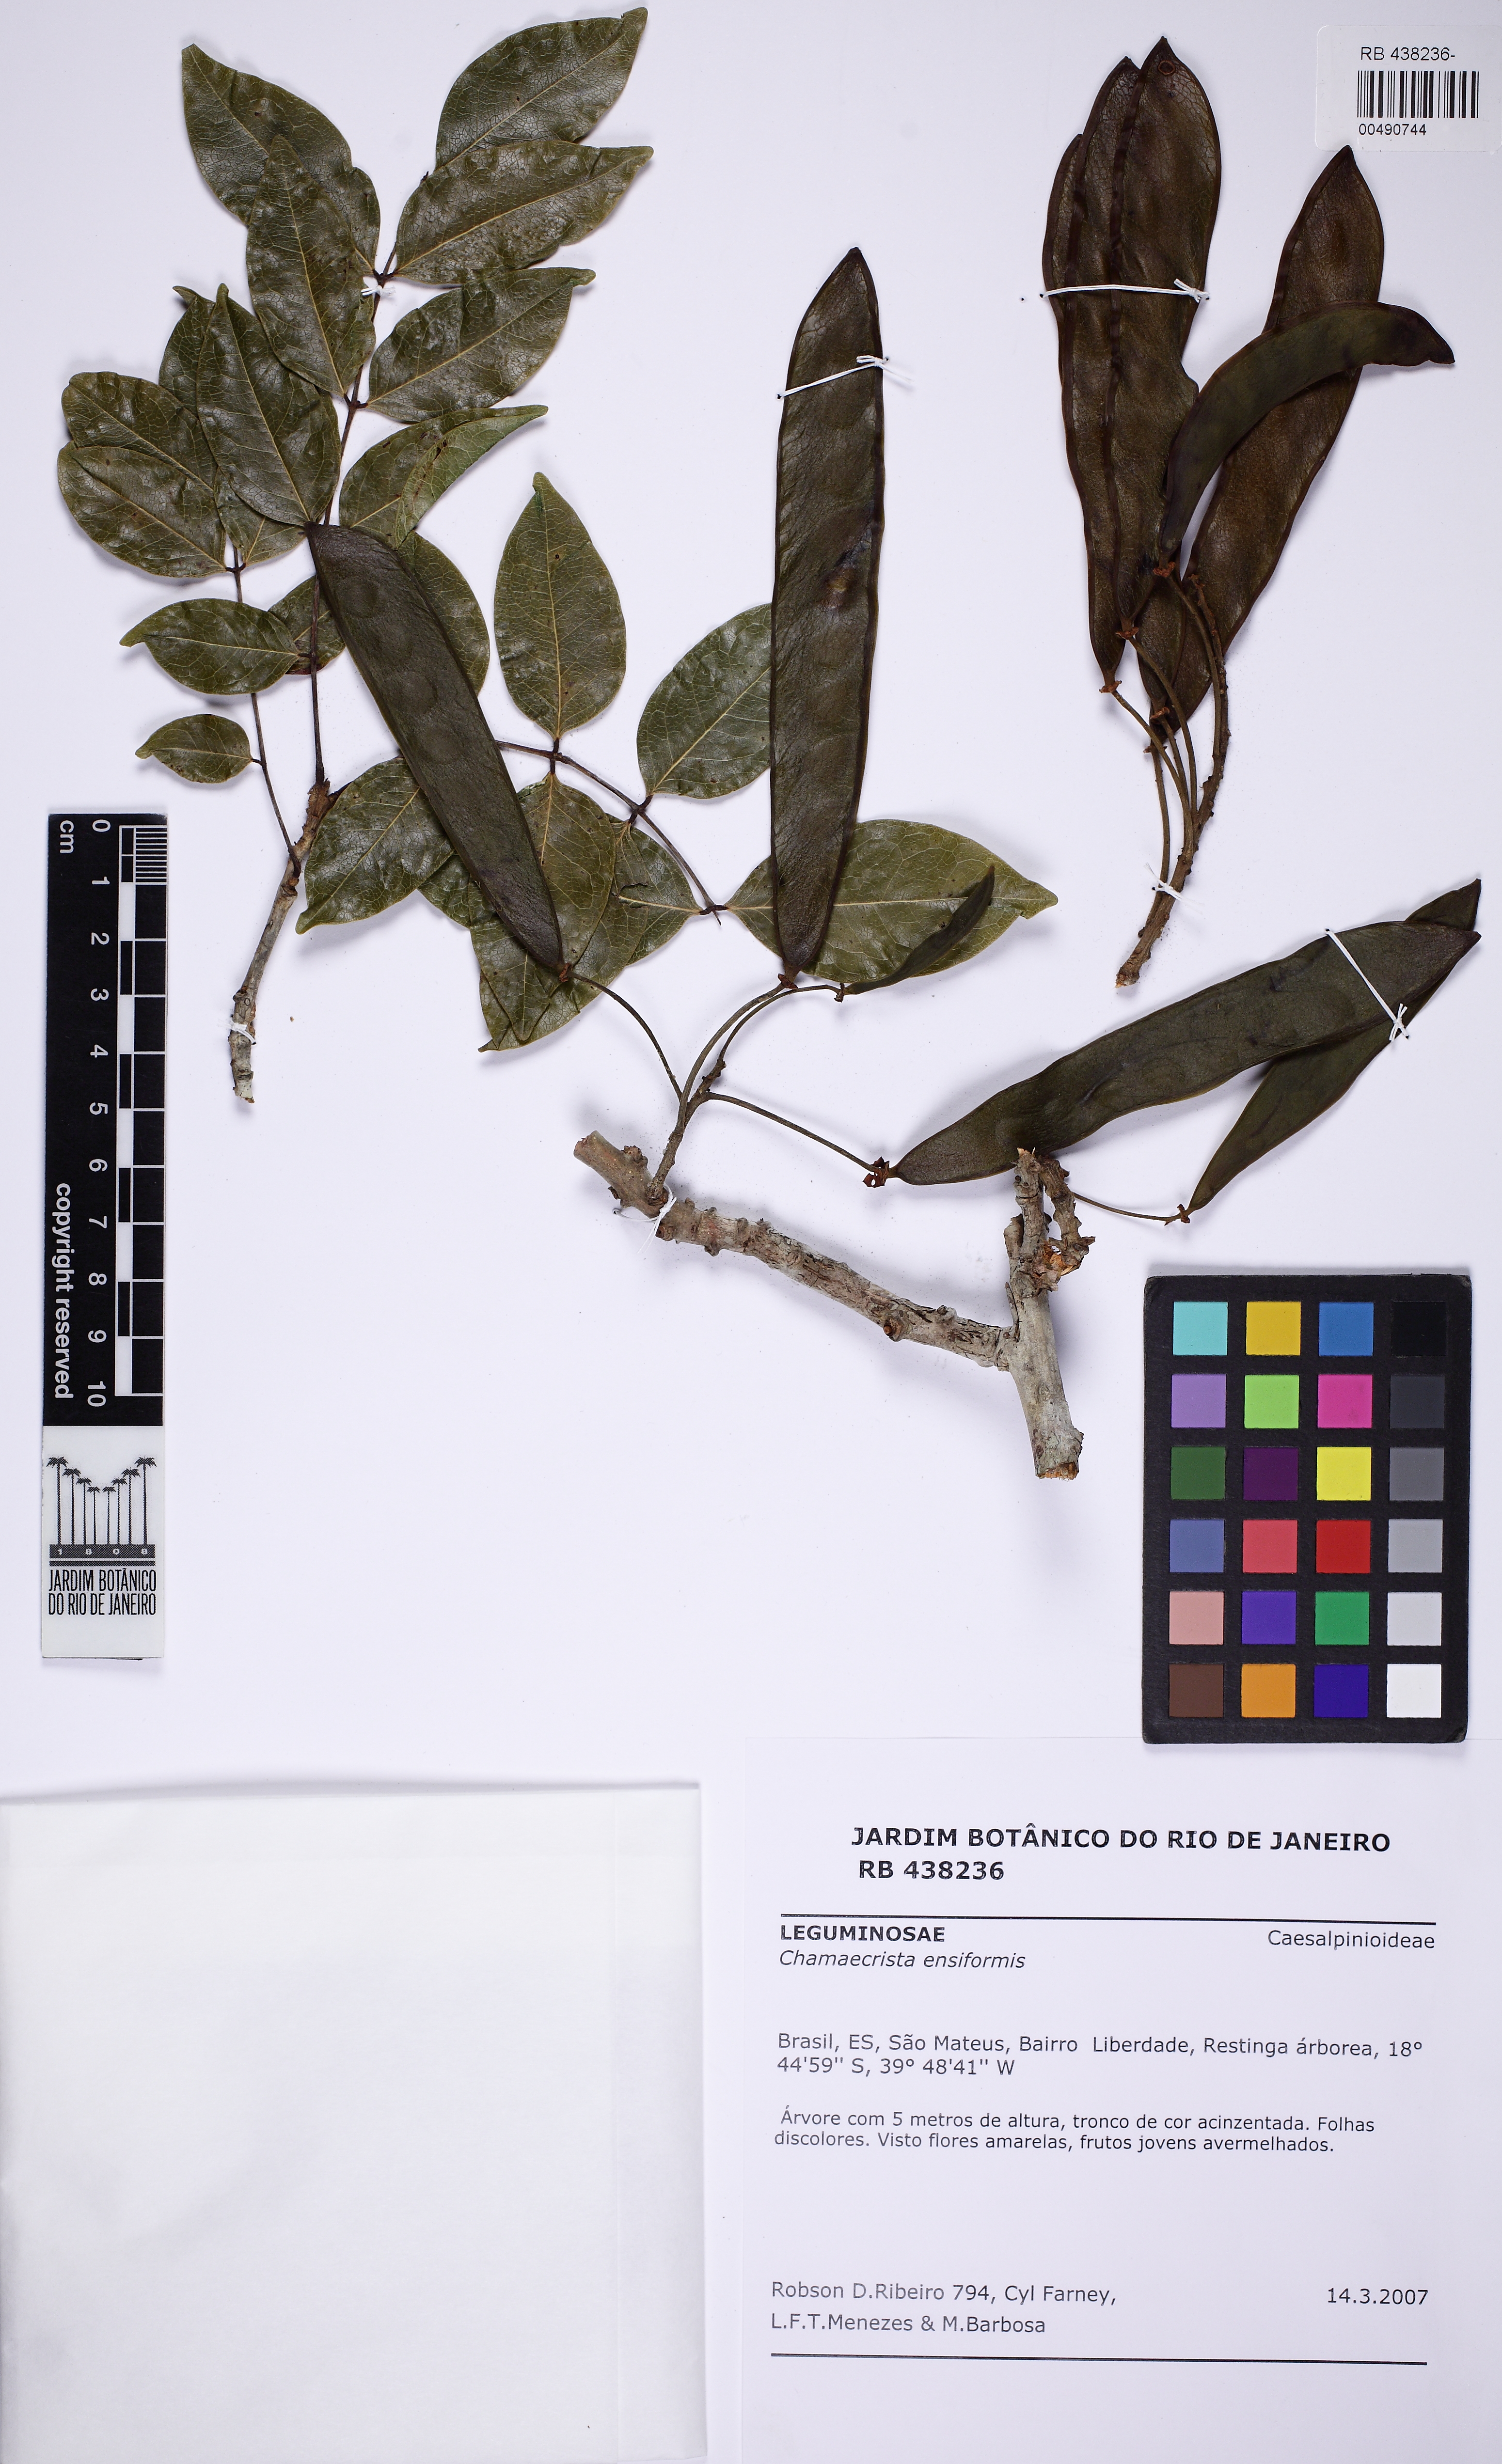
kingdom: Plantae
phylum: Tracheophyta
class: Magnoliopsida
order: Fabales
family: Fabaceae
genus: Chamaecrista
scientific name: Chamaecrista ensiformis
